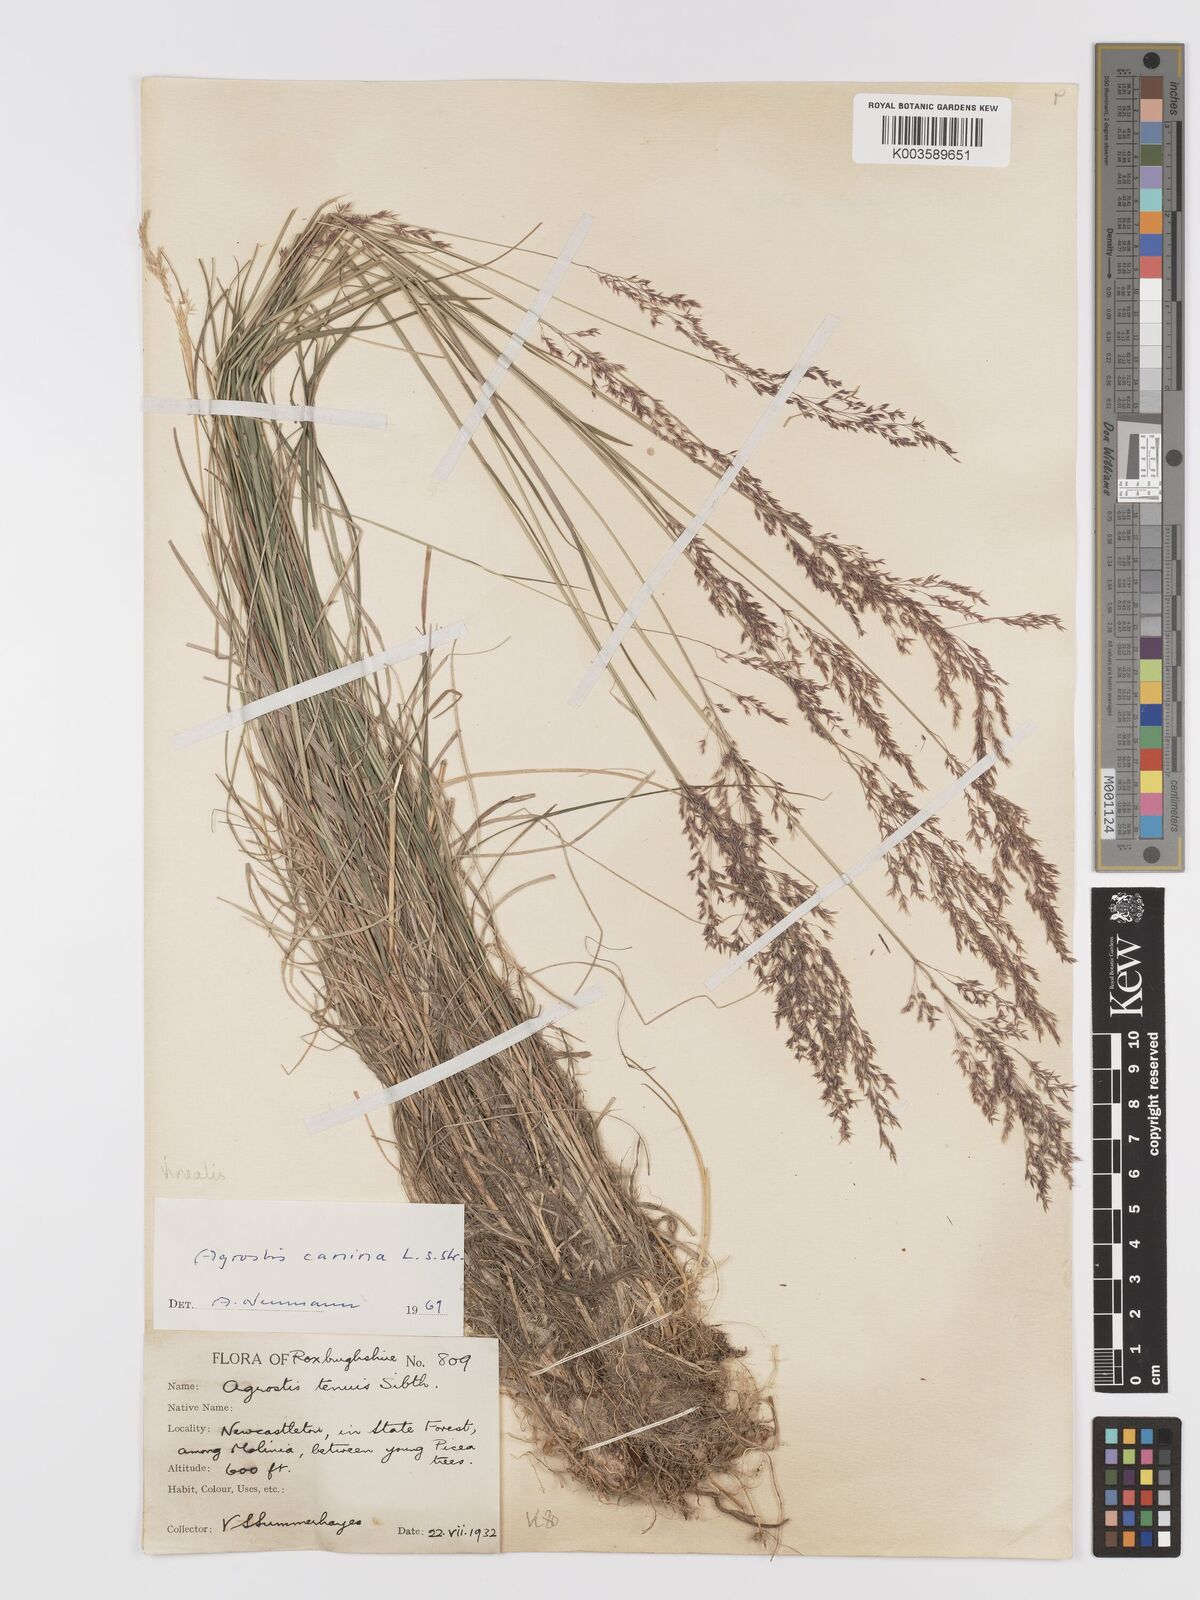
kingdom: Plantae
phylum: Tracheophyta
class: Liliopsida
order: Poales
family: Poaceae
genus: Agrostis
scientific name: Agrostis
